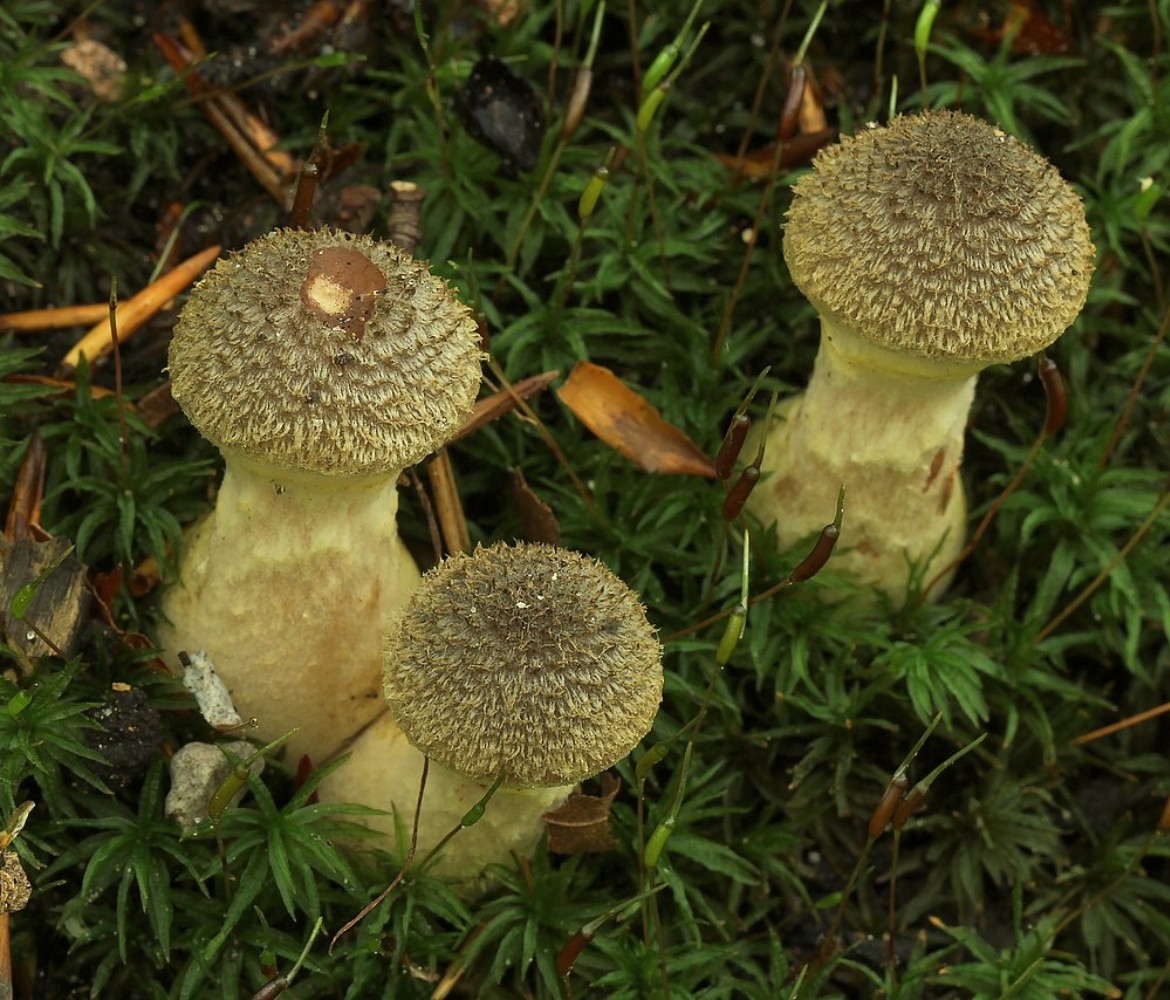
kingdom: Fungi
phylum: Basidiomycota
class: Agaricomycetes
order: Agaricales
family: Physalacriaceae
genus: Armillaria
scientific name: Armillaria lutea
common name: køllestokket honningsvamp
